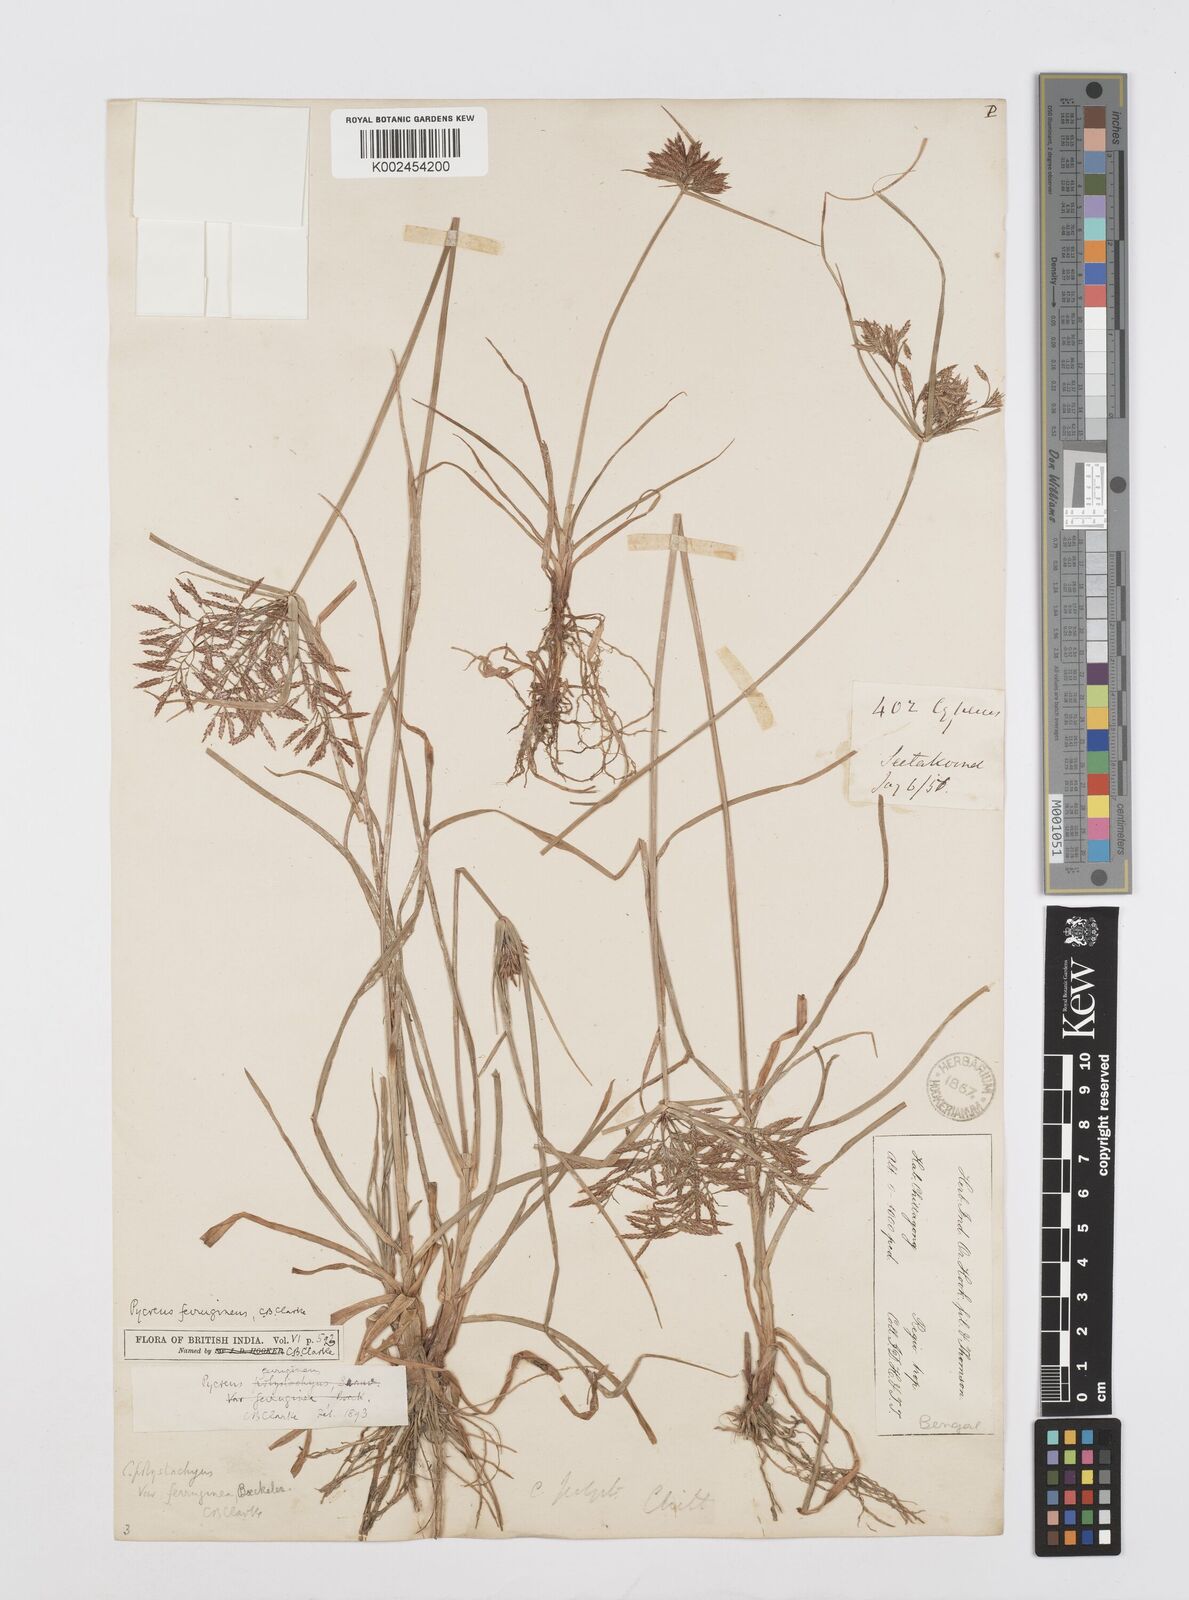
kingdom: Plantae
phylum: Tracheophyta
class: Liliopsida
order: Poales
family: Cyperaceae
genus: Cyperus
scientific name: Cyperus polystachyos
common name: Bunchy flat sedge
